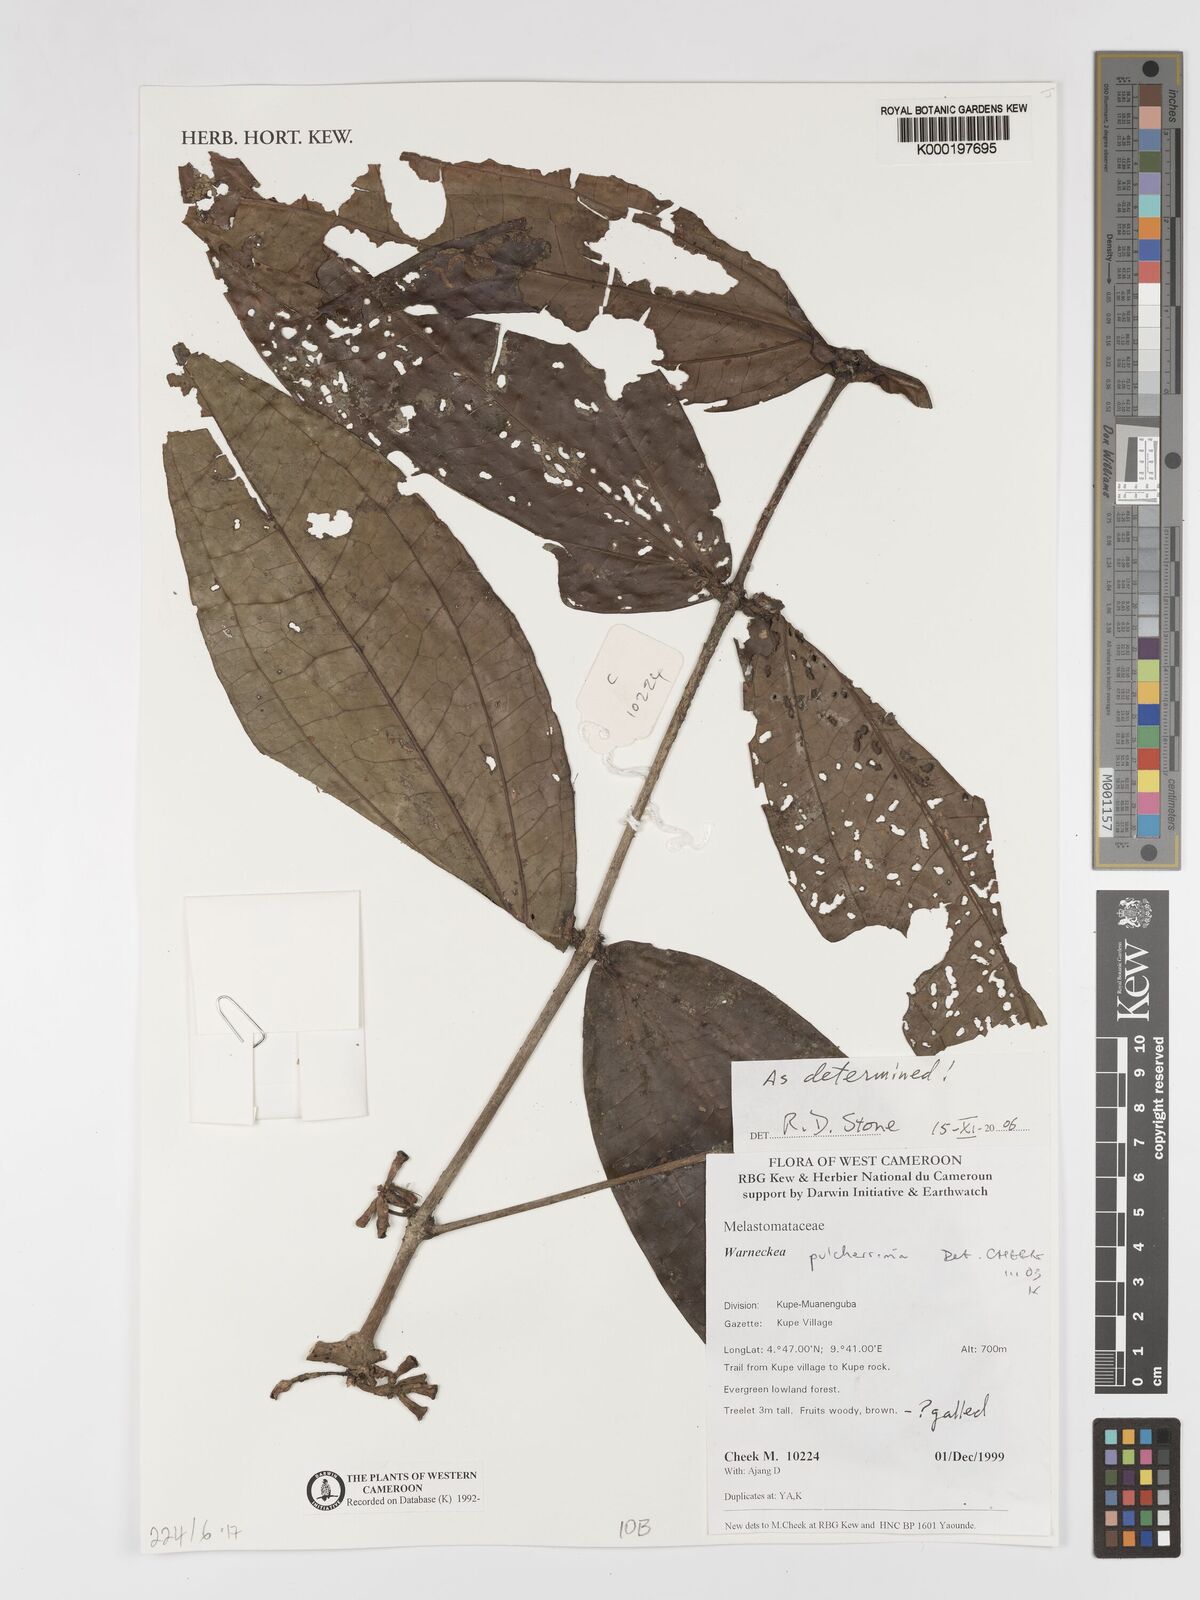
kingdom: Plantae
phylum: Tracheophyta
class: Magnoliopsida
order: Myrtales
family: Melastomataceae
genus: Warneckea
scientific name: Warneckea
